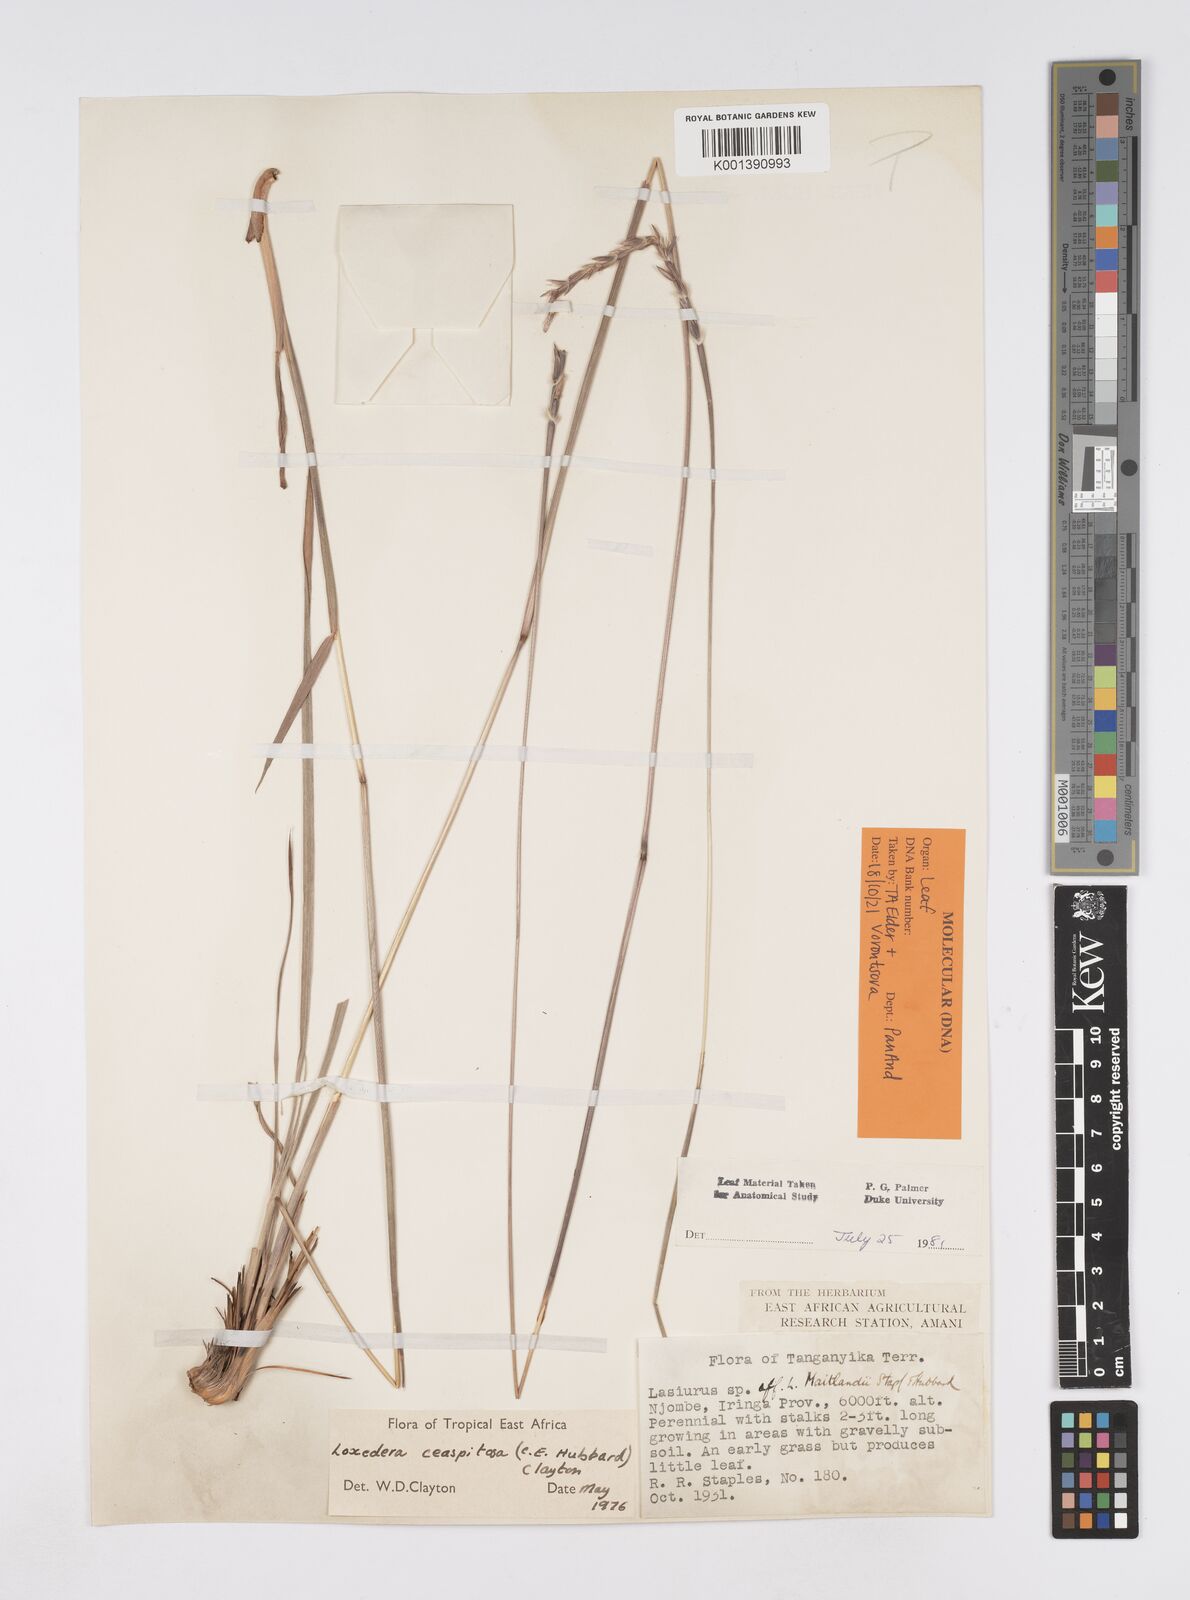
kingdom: Plantae
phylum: Tracheophyta
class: Liliopsida
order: Poales
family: Poaceae
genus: Loxodera
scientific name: Loxodera caespitosa
